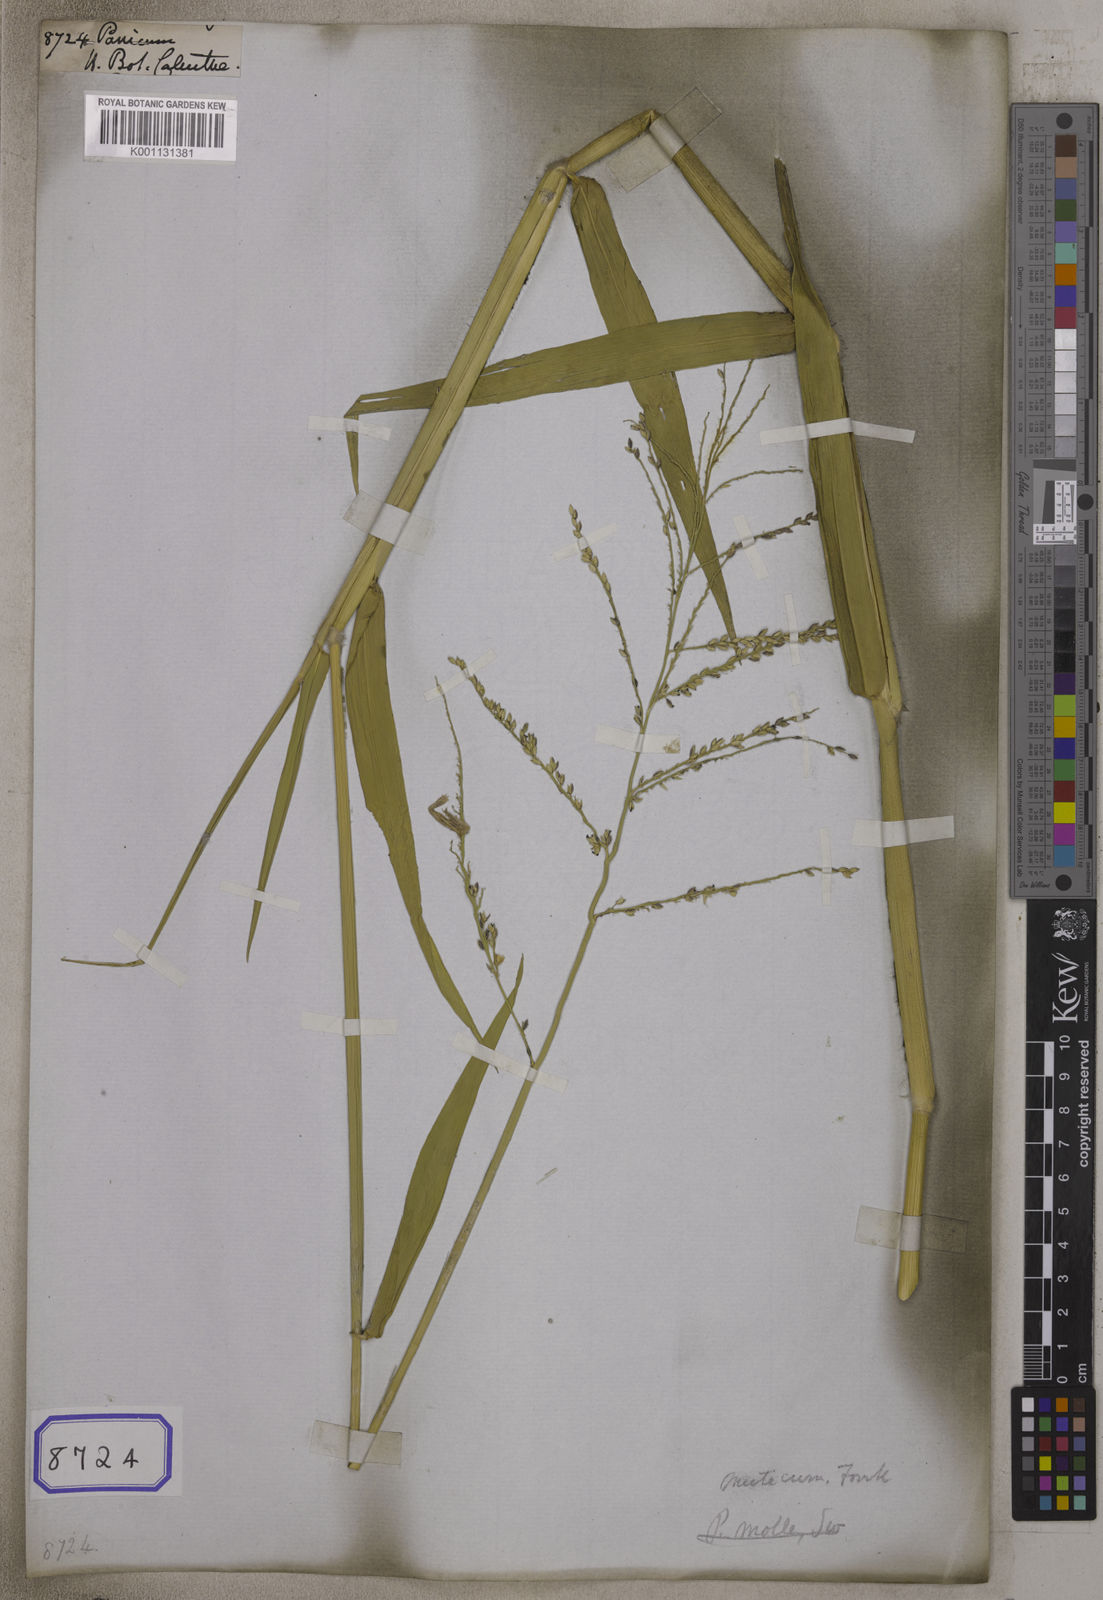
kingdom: Plantae
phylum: Tracheophyta
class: Liliopsida
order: Poales
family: Poaceae
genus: Panicum
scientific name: Panicum
